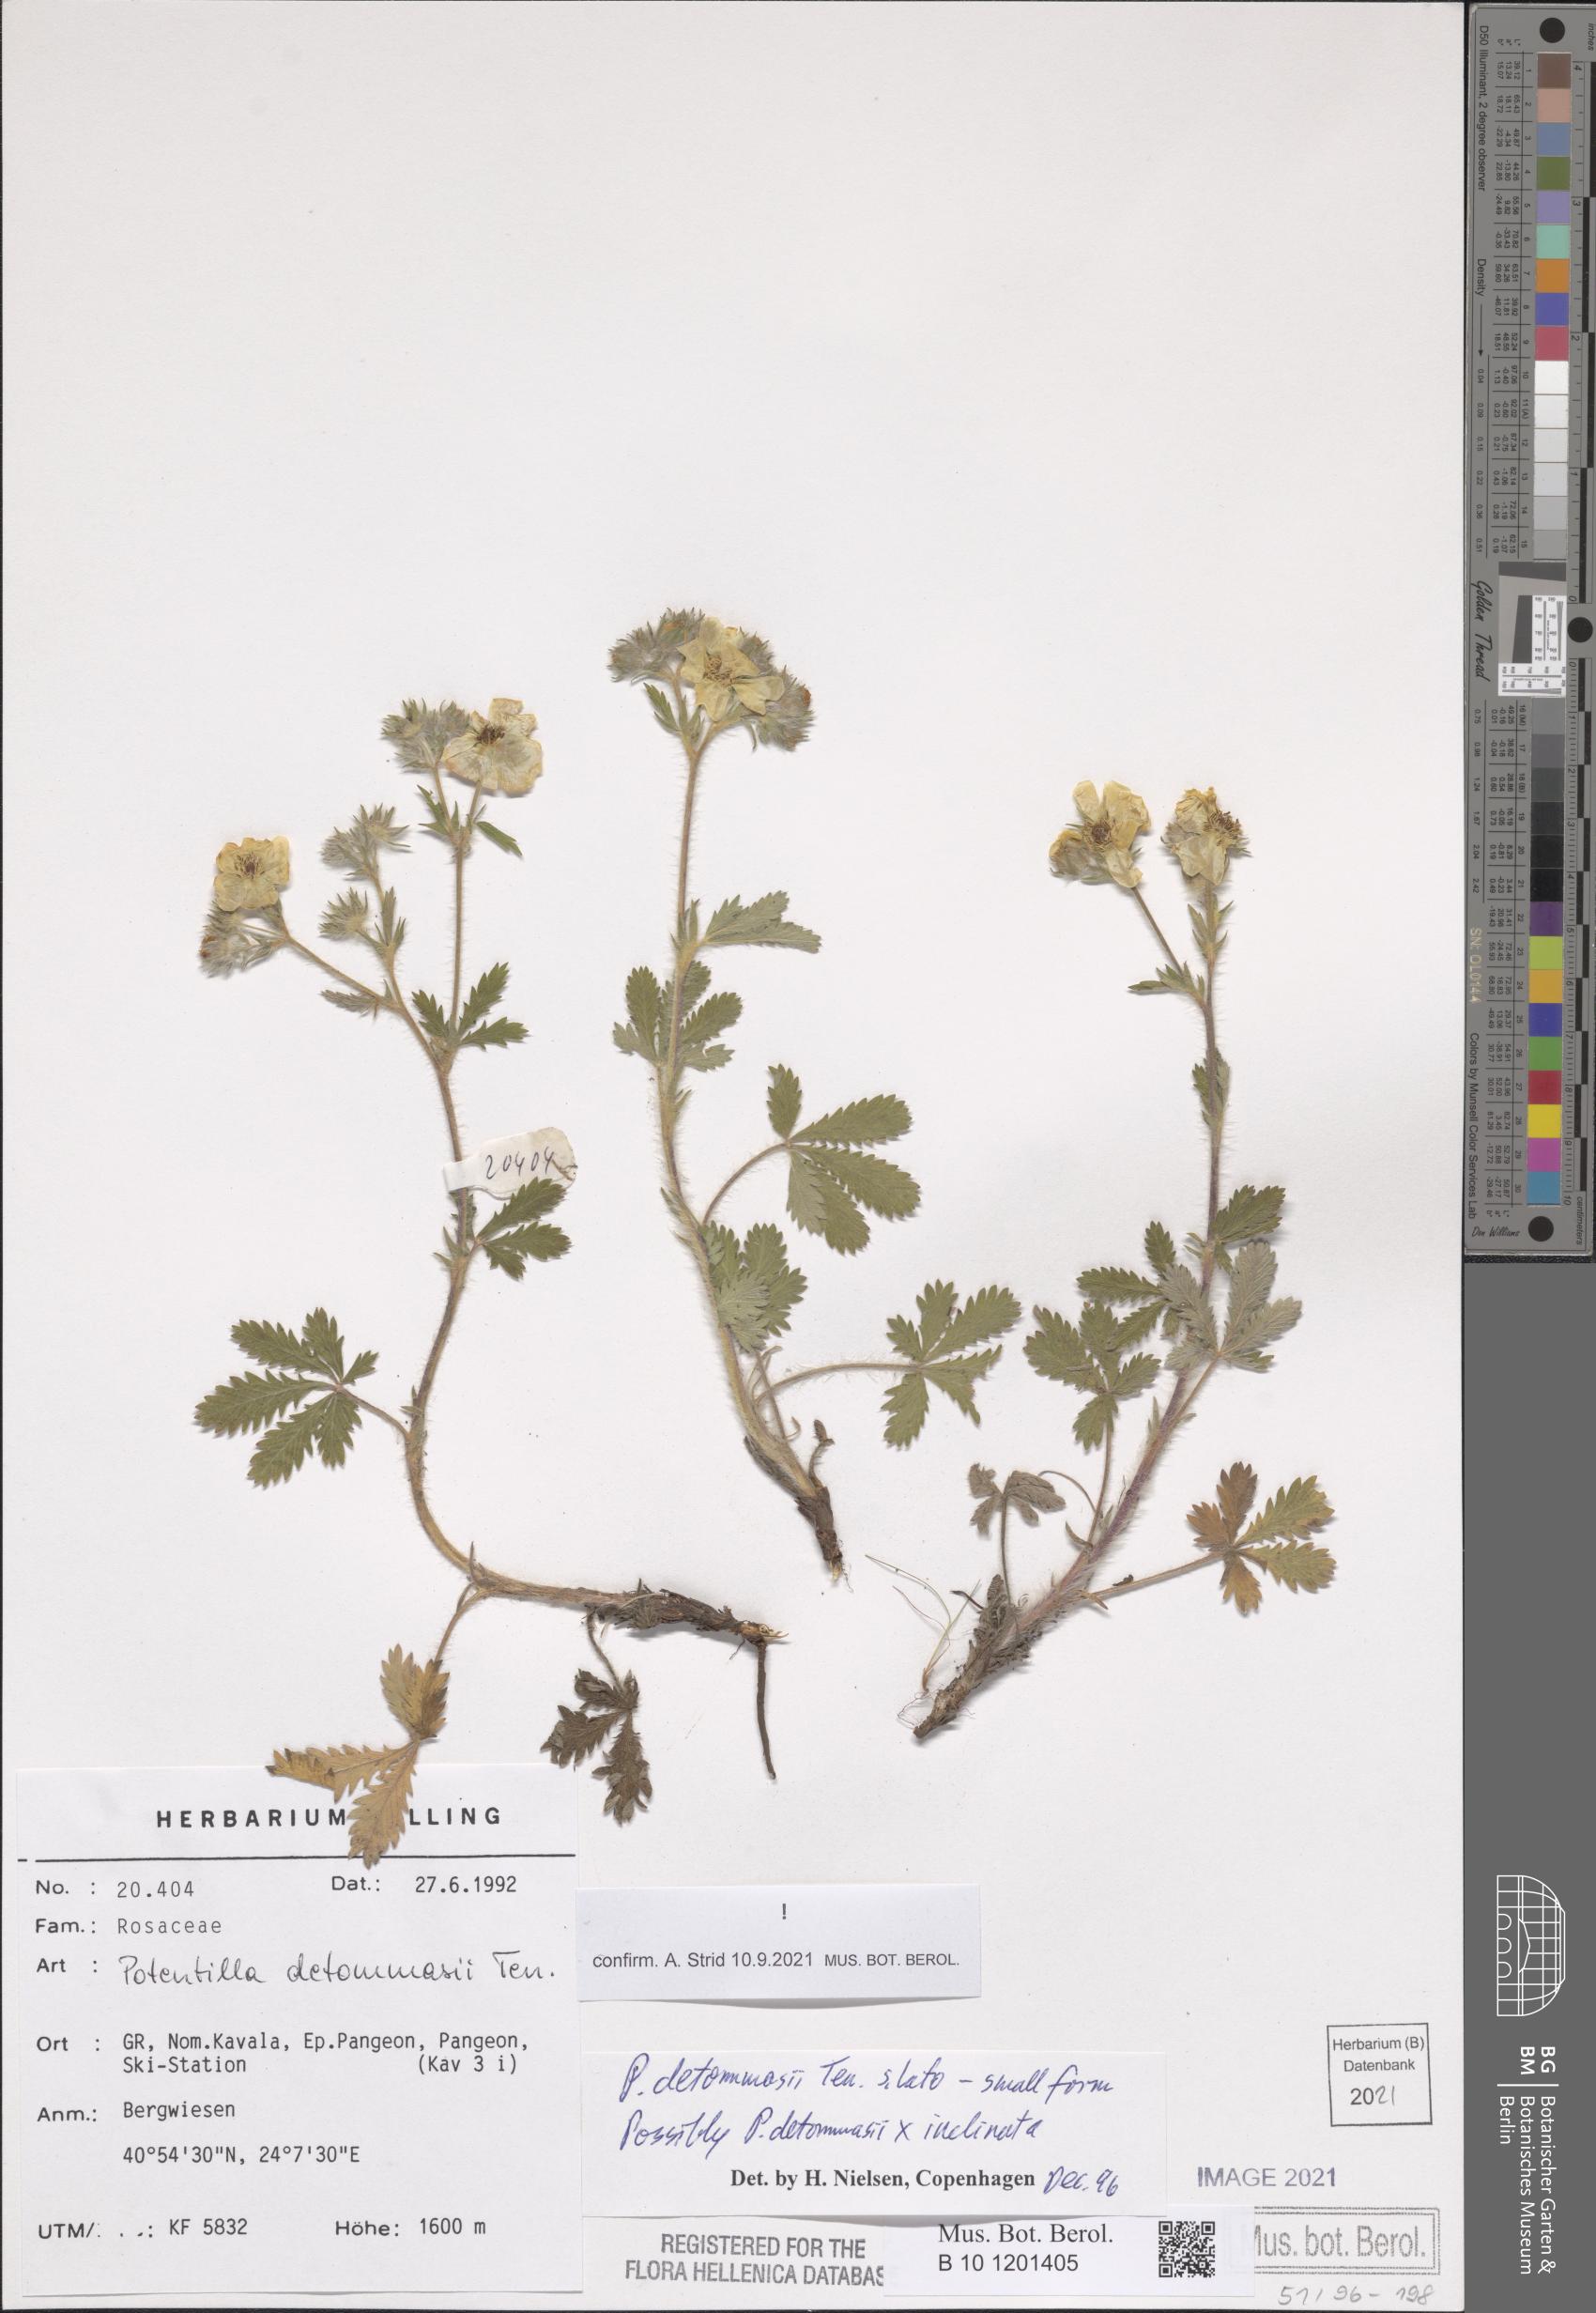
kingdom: Plantae
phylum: Tracheophyta
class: Magnoliopsida
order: Rosales
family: Rosaceae
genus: Potentilla
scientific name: Potentilla detommasii
